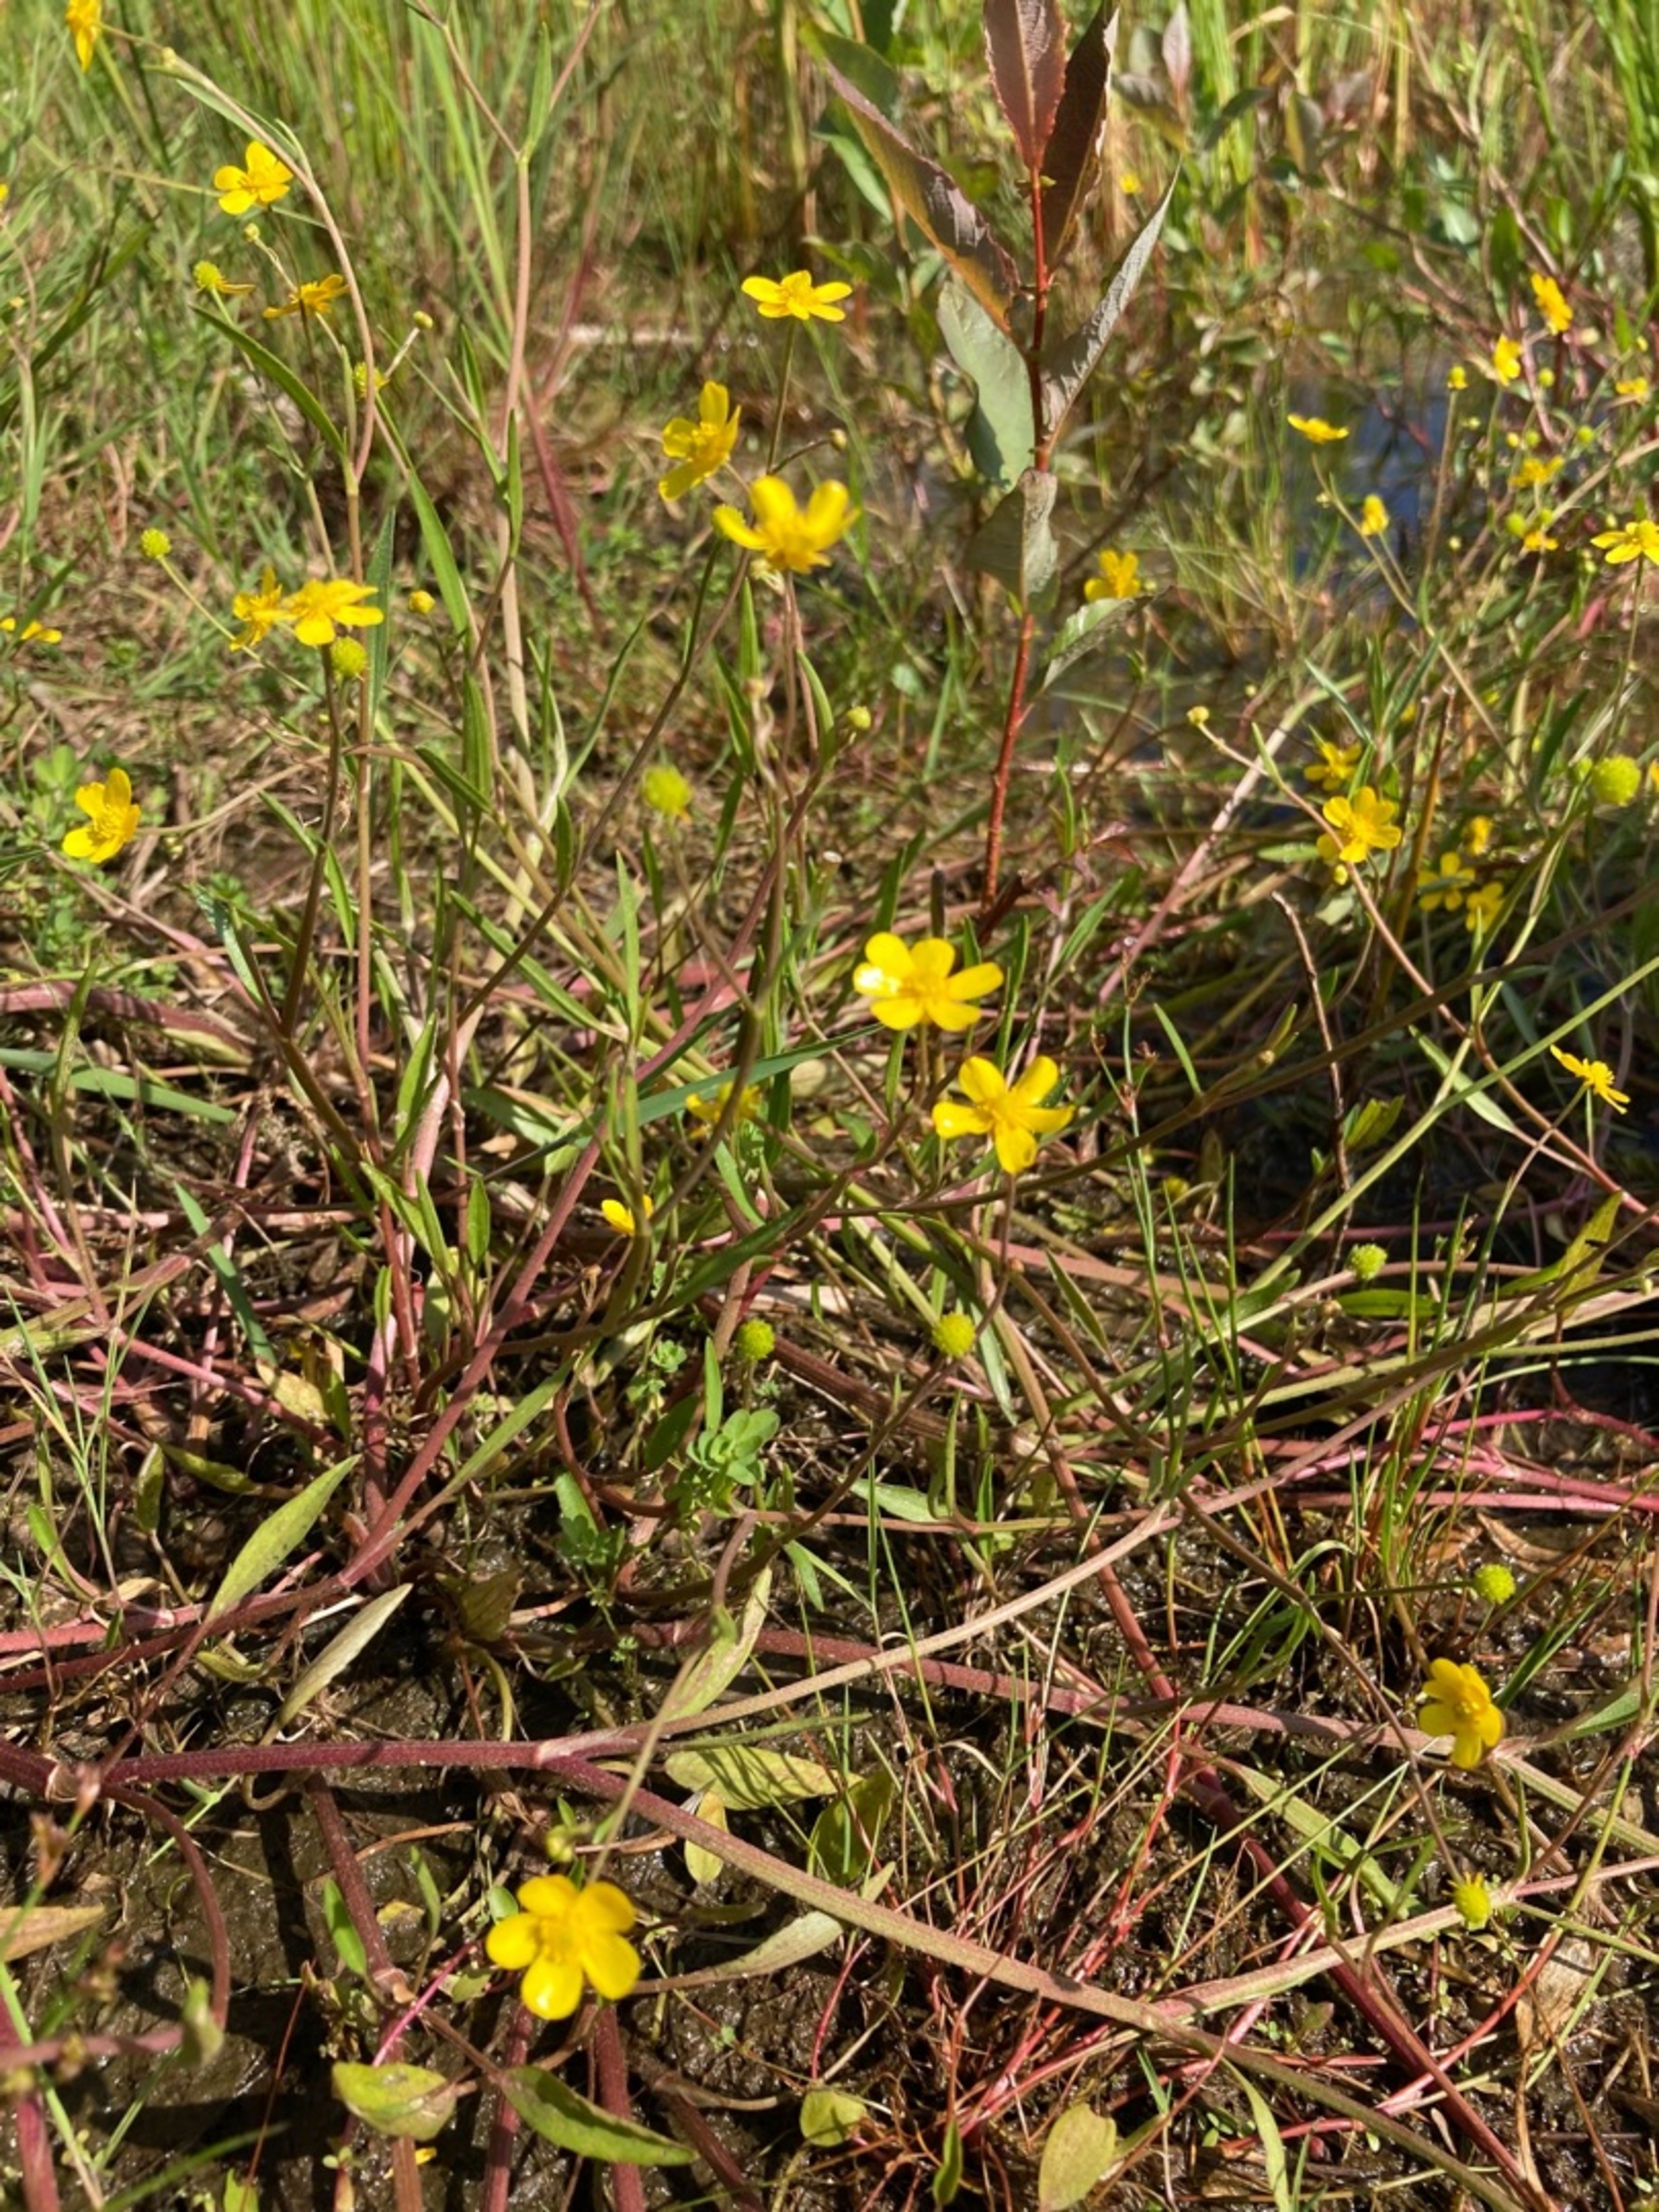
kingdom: Plantae
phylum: Tracheophyta
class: Magnoliopsida
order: Ranunculales
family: Ranunculaceae
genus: Ranunculus
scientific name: Ranunculus flammula
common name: Kær-ranunkel
